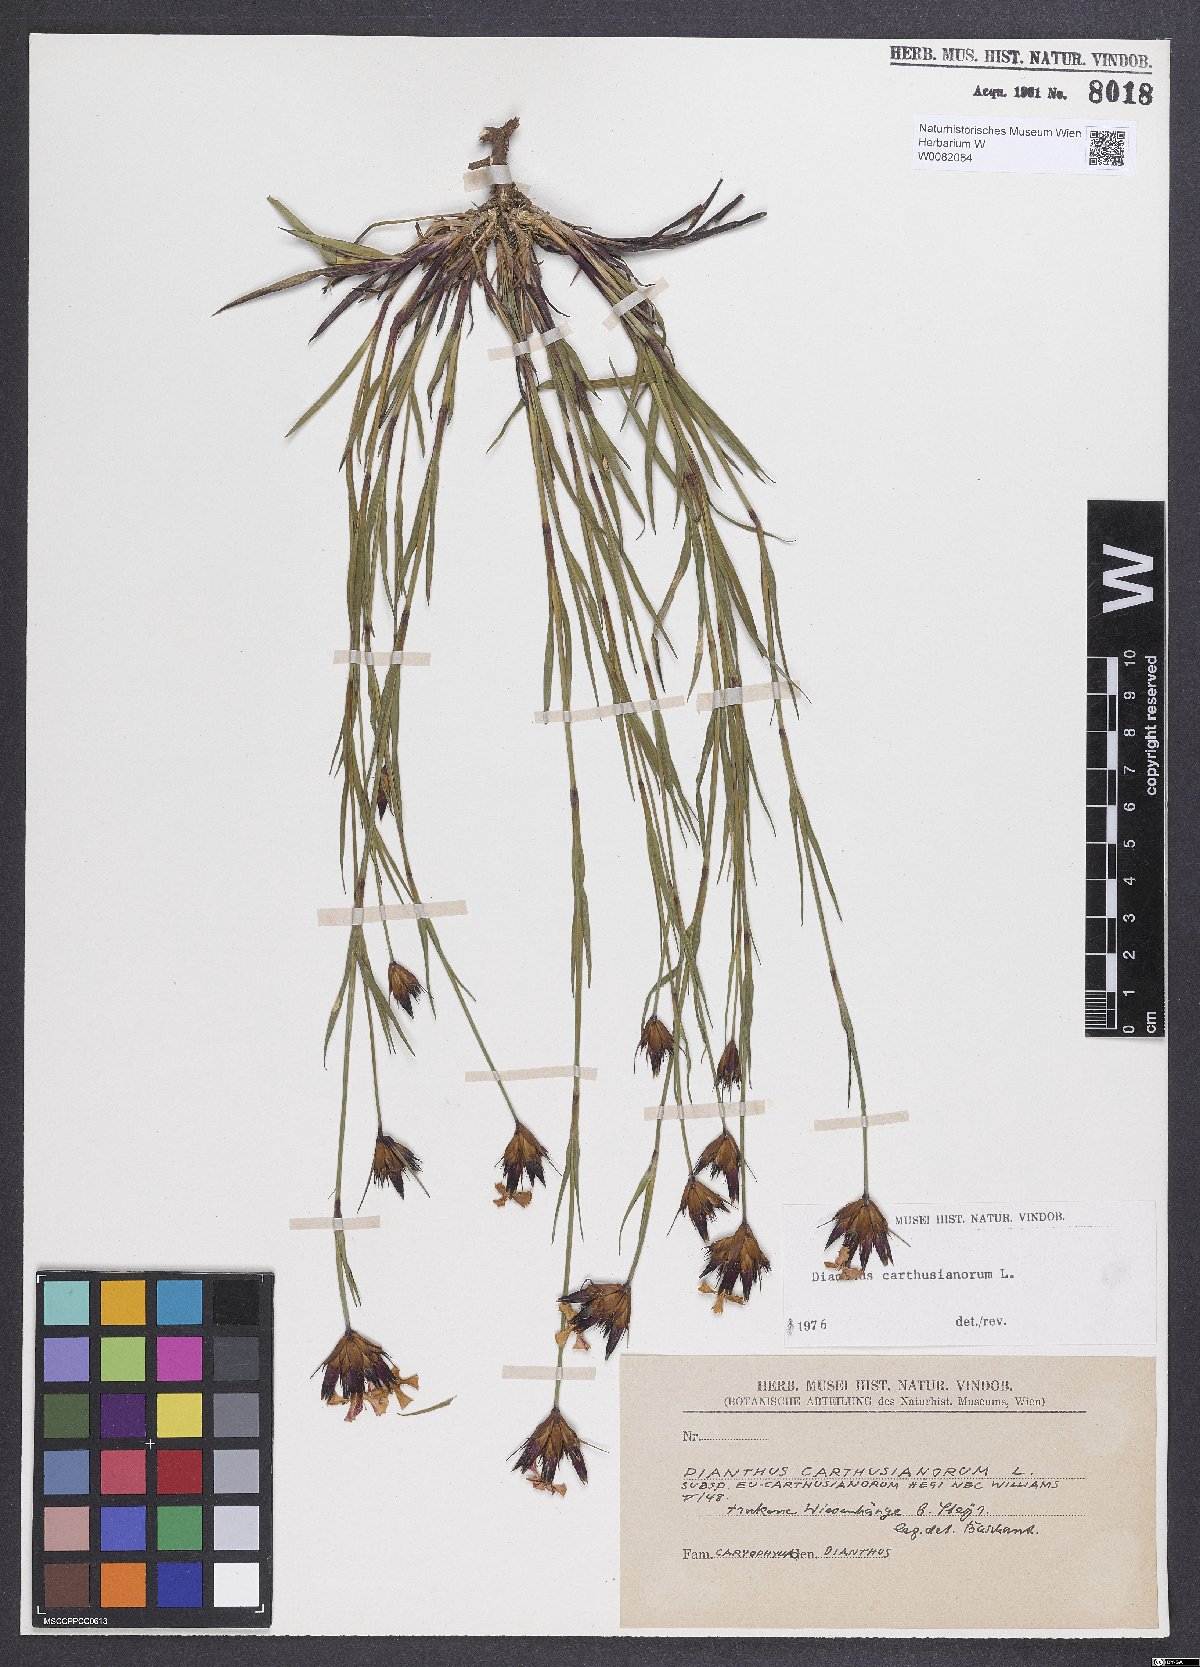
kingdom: Plantae
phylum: Tracheophyta
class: Magnoliopsida
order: Caryophyllales
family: Caryophyllaceae
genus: Dianthus
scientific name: Dianthus carthusianorum
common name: Carthusian pink
